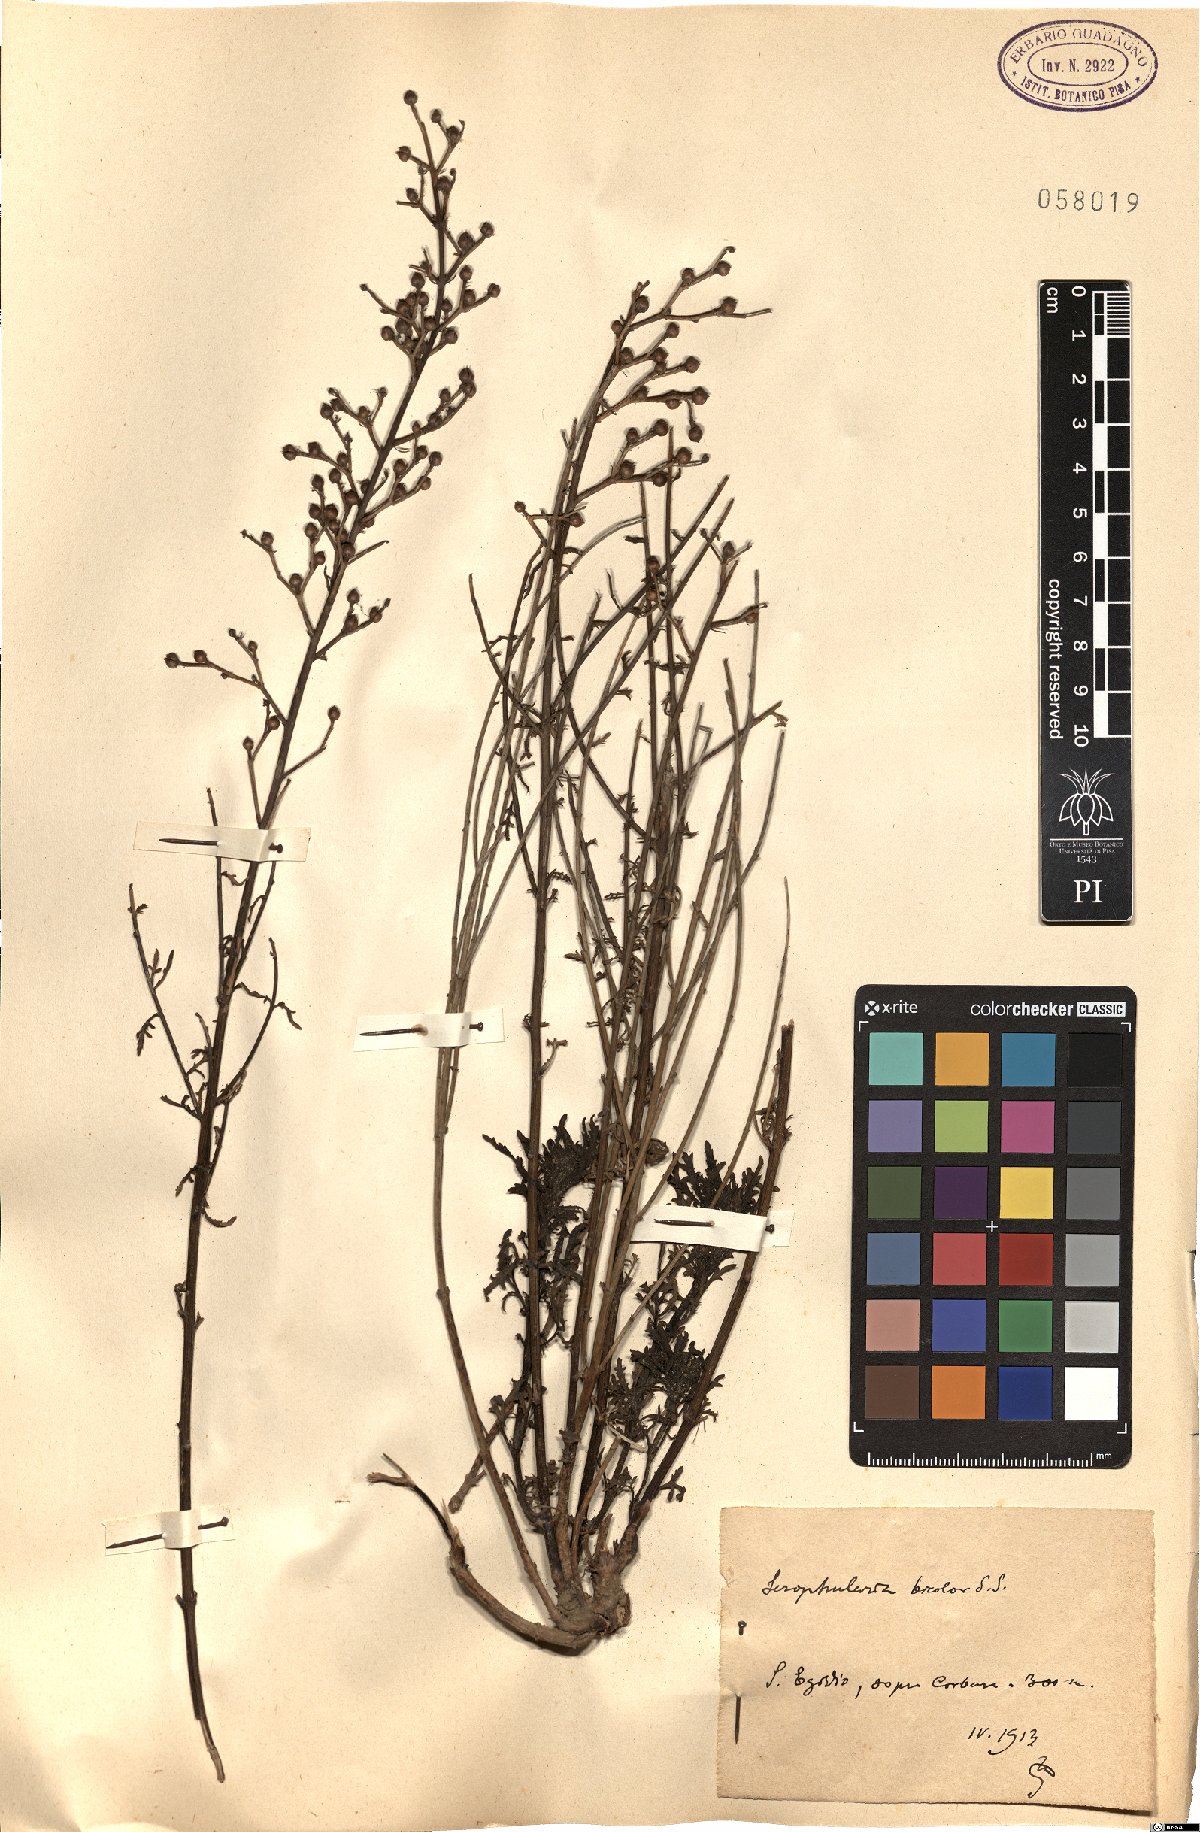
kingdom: Plantae
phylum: Tracheophyta
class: Magnoliopsida
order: Lamiales
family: Scrophulariaceae
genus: Scrophularia
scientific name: Scrophularia canina
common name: French figwort
